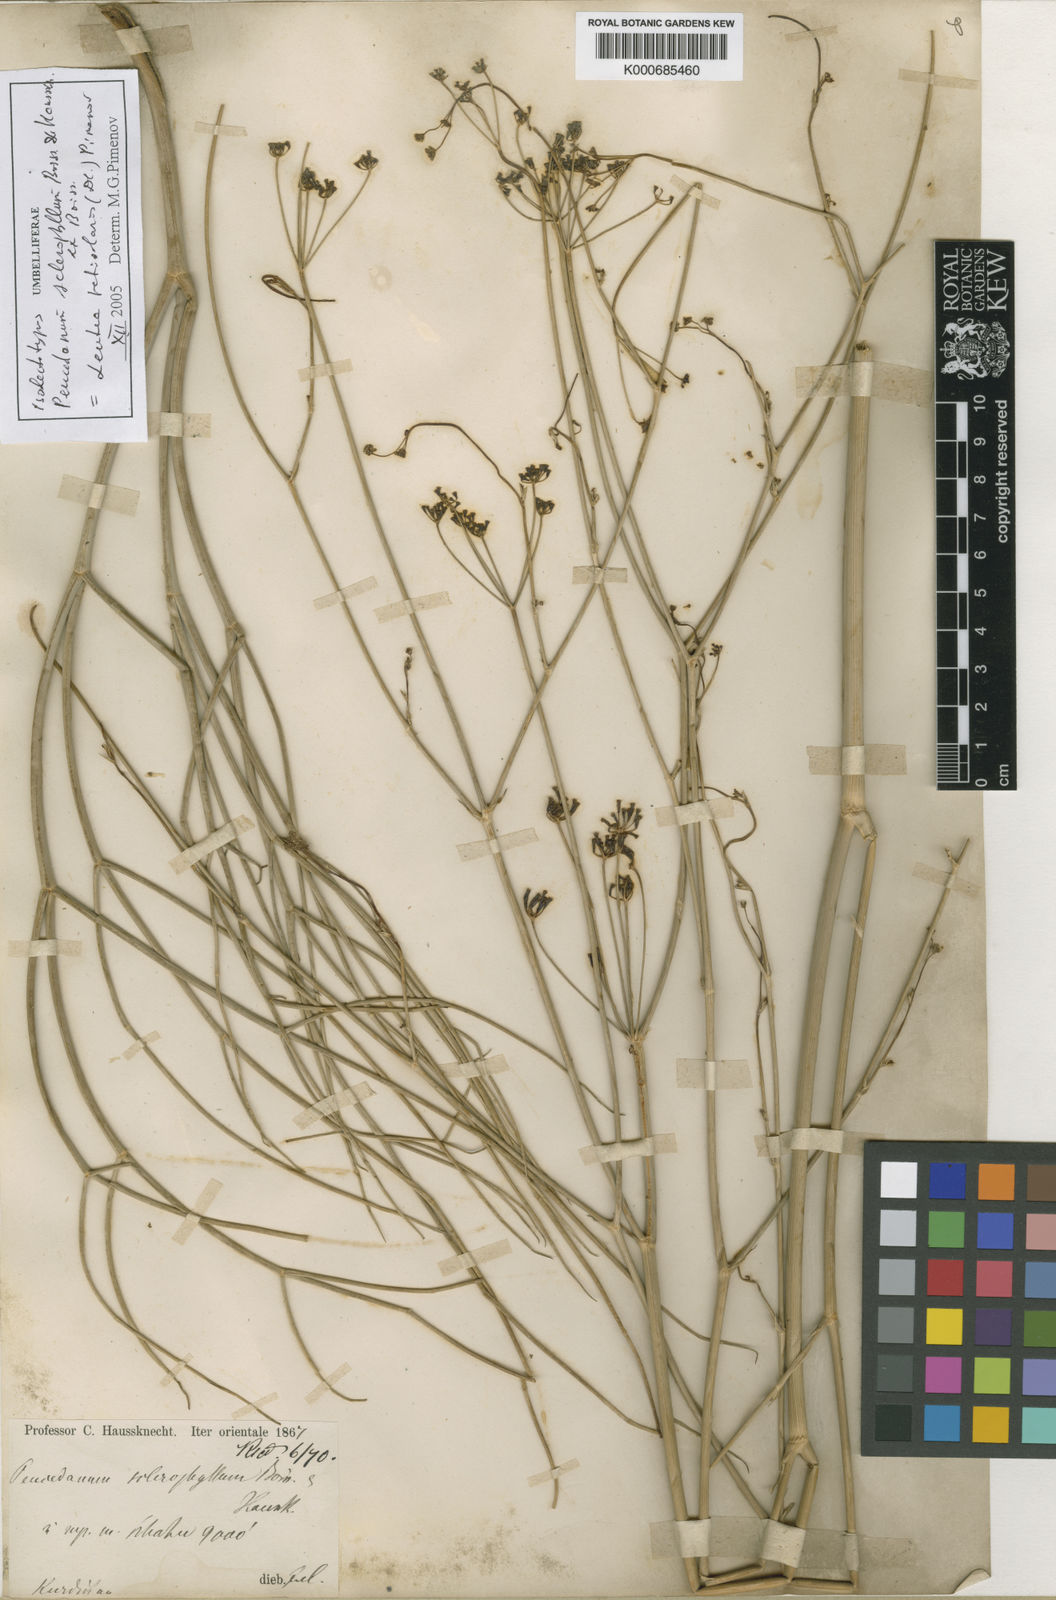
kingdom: Plantae
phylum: Tracheophyta
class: Magnoliopsida
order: Apiales
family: Apiaceae
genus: Leutea
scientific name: Leutea sclerophylla
